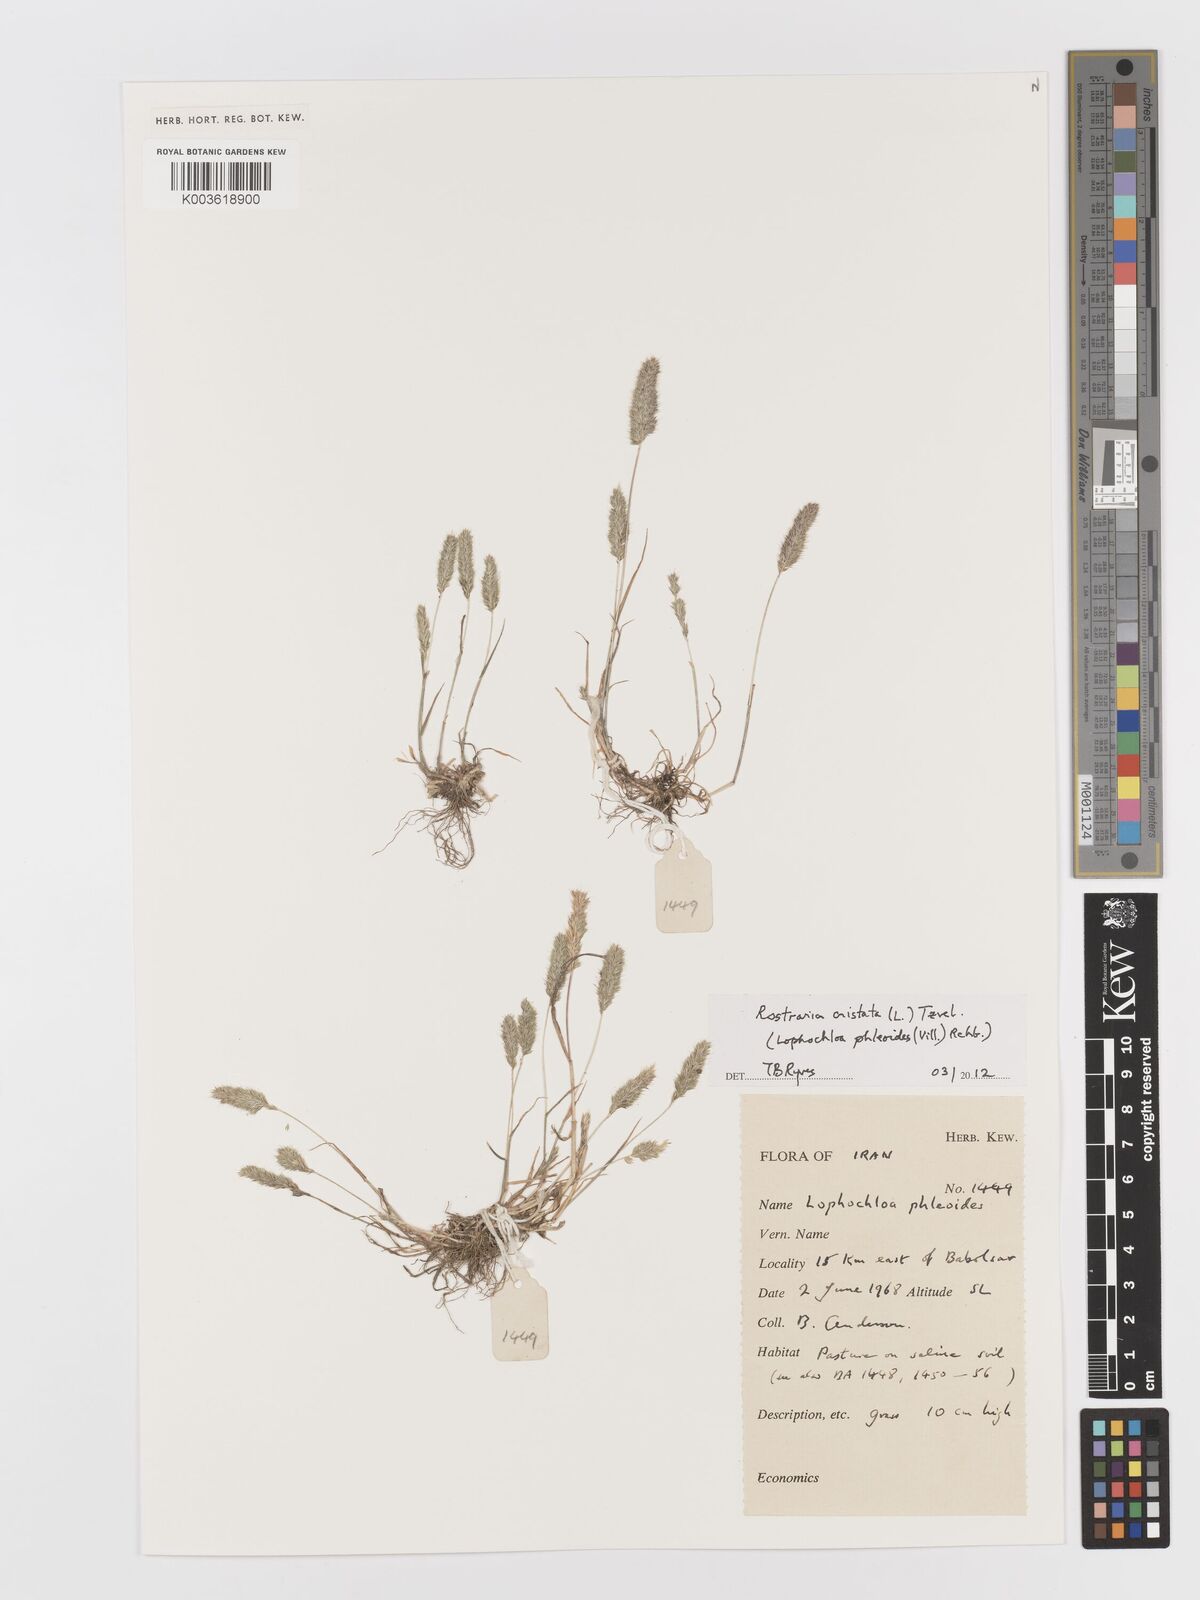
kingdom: Plantae
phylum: Tracheophyta
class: Liliopsida
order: Poales
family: Poaceae
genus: Rostraria
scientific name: Rostraria cristata
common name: Mediterranean hair-grass
